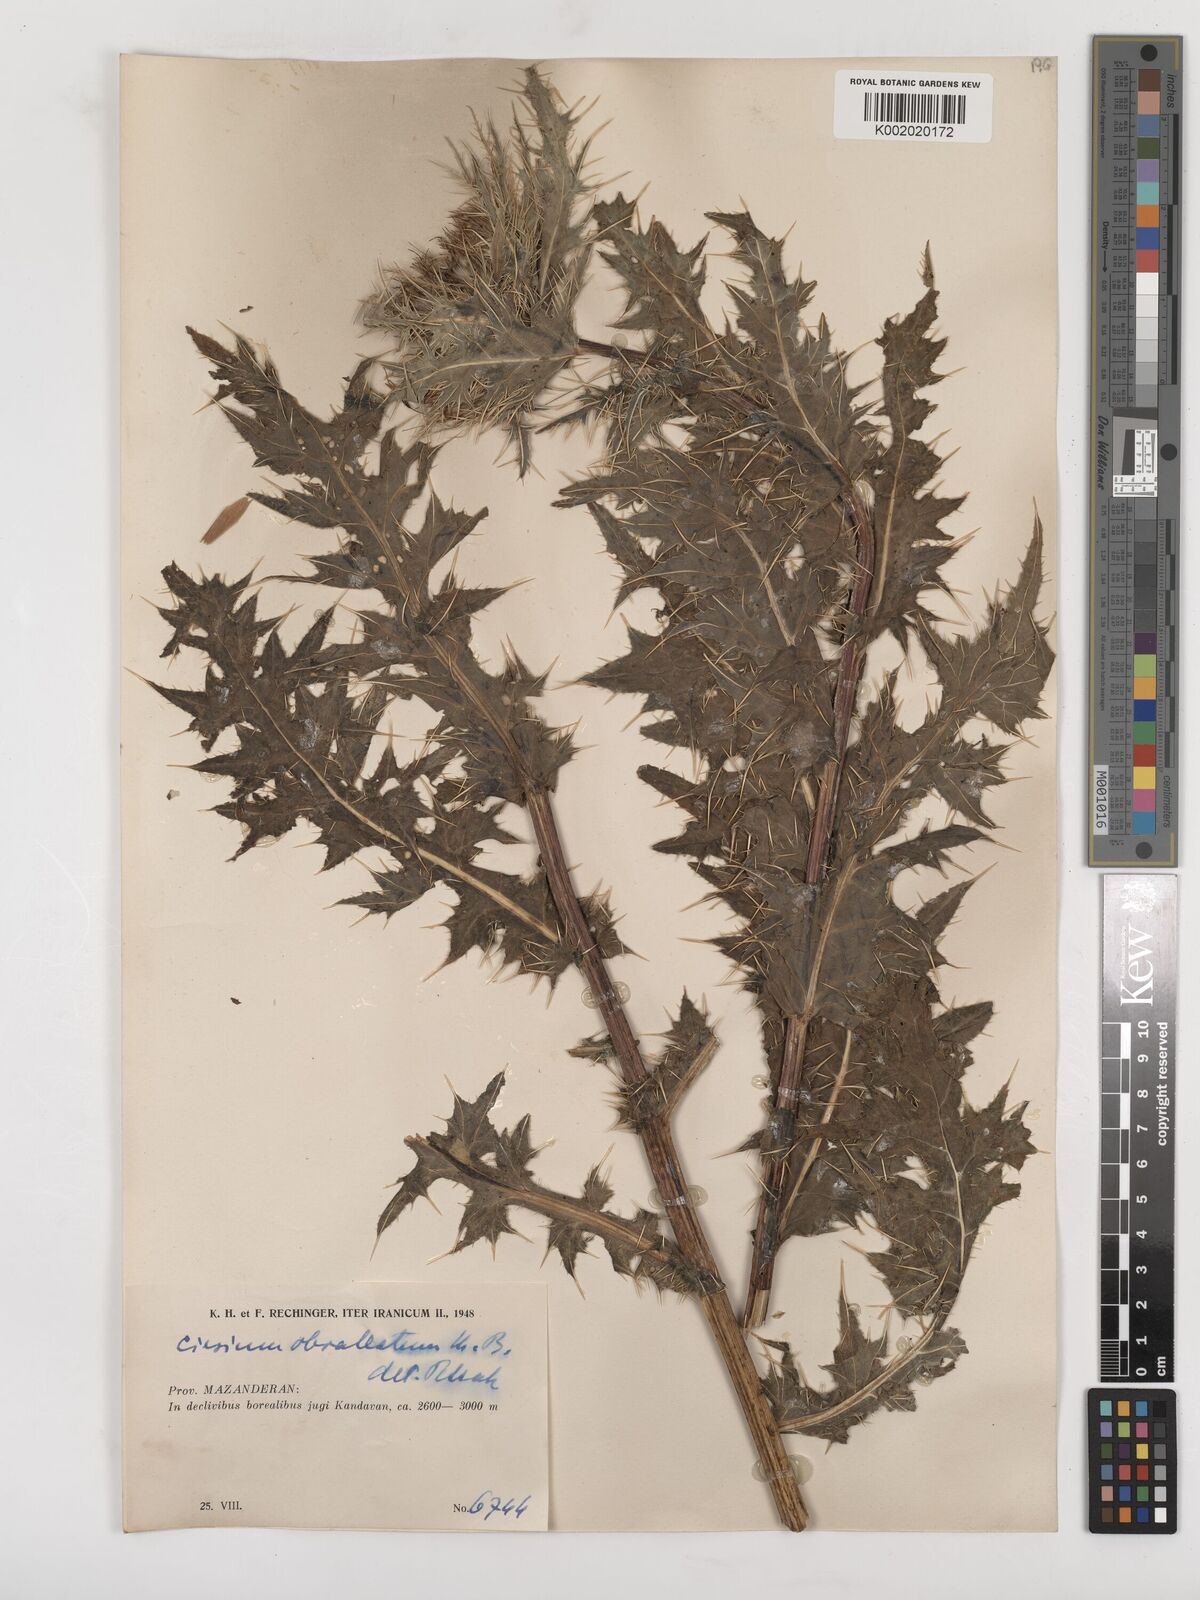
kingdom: Plantae
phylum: Tracheophyta
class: Magnoliopsida
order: Asterales
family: Asteraceae
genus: Cirsium
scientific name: Cirsium obvallatum
